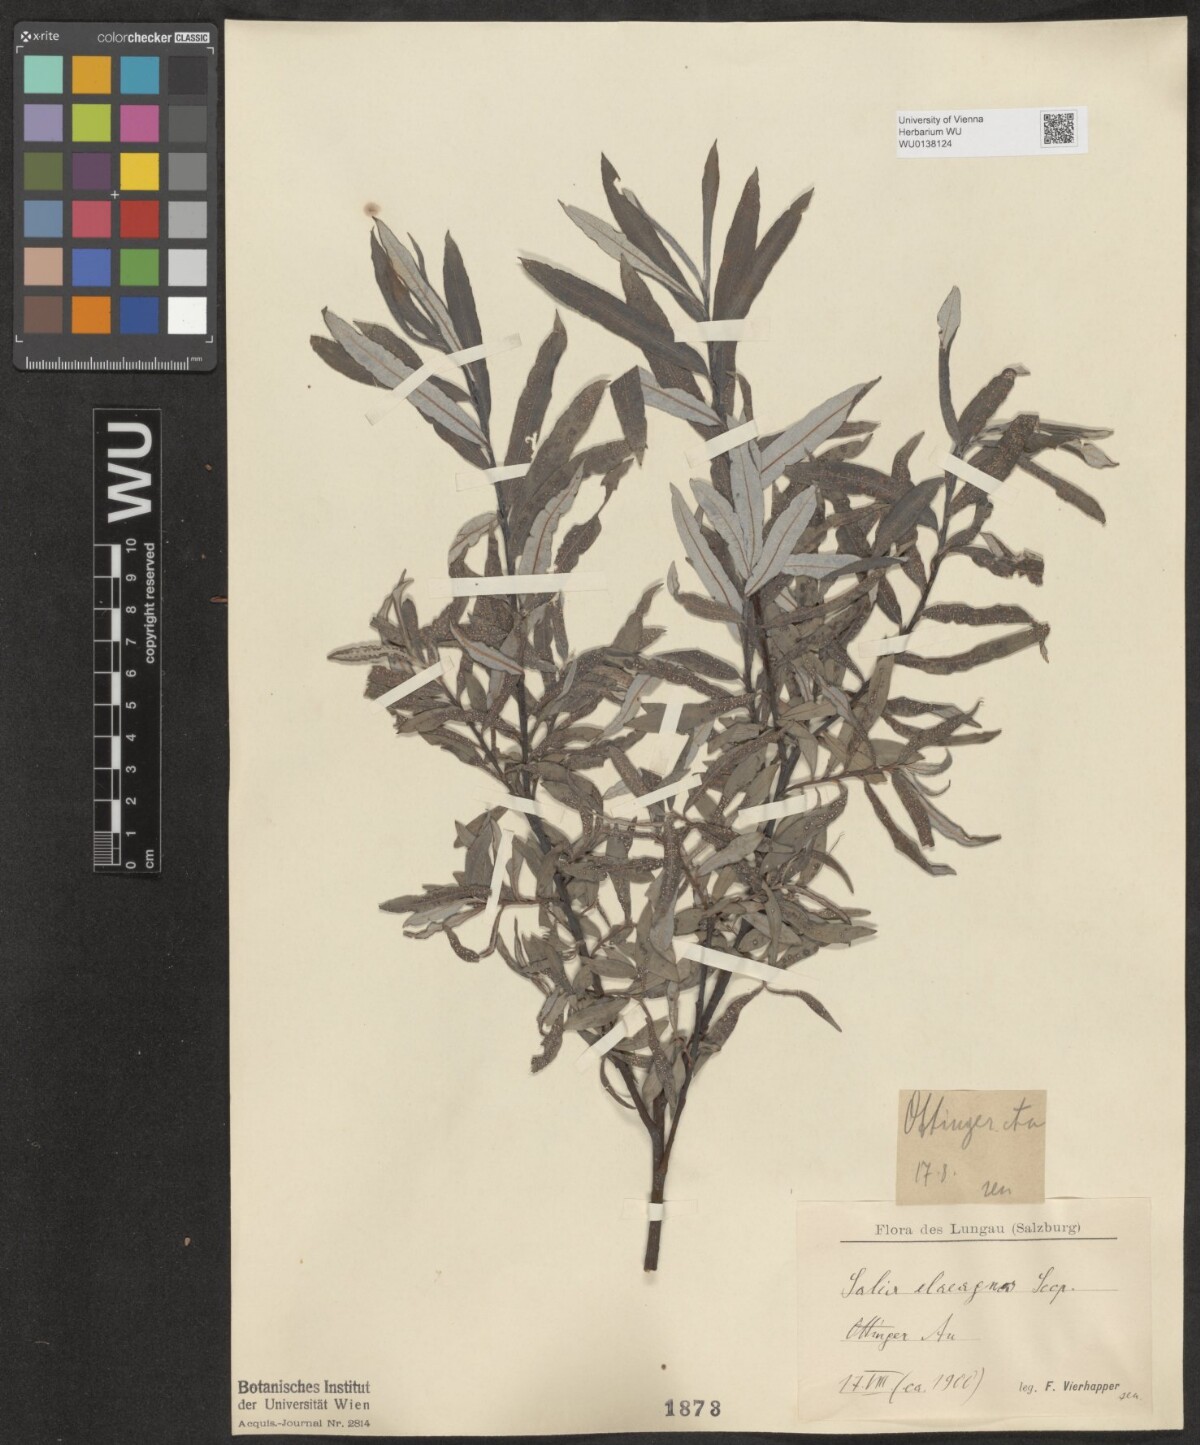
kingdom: Plantae
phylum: Tracheophyta
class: Magnoliopsida
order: Malpighiales
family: Salicaceae
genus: Salix
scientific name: Salix eleagnos
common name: Elaeagnus willow
